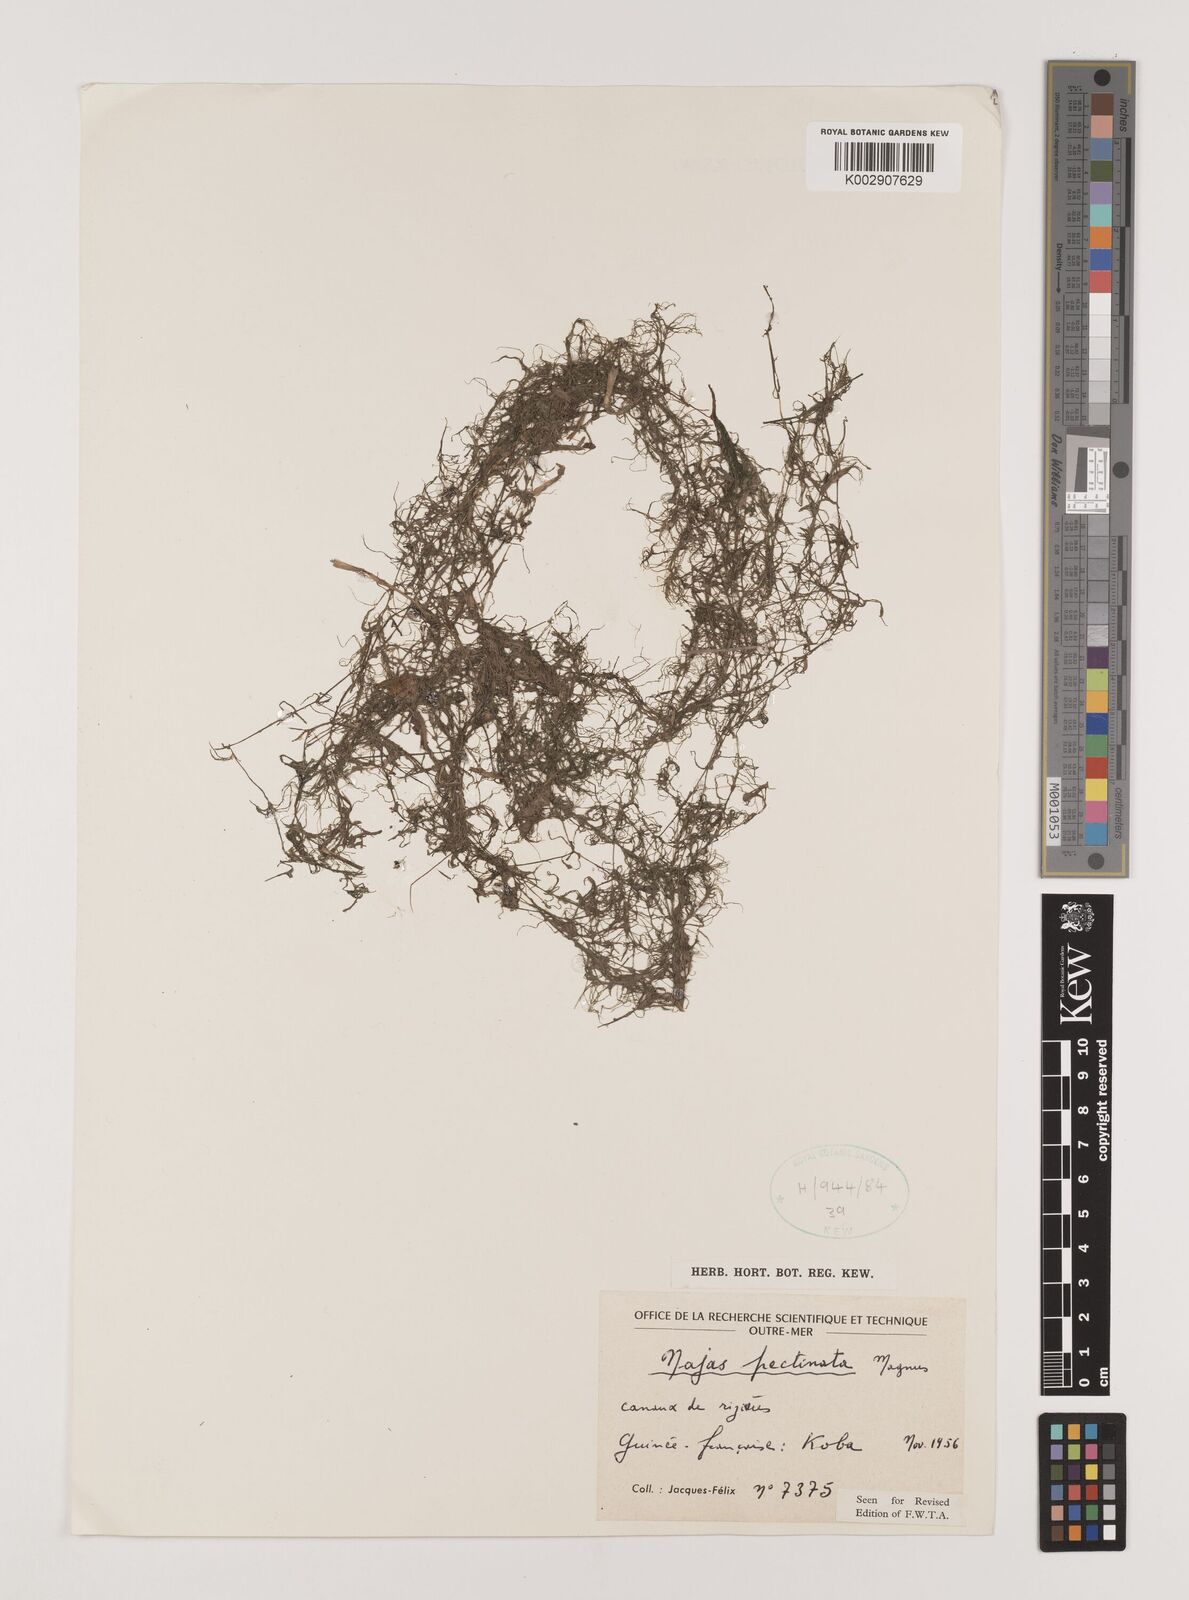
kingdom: Plantae
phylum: Tracheophyta
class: Liliopsida
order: Alismatales
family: Hydrocharitaceae
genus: Najas
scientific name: Najas pectinata
